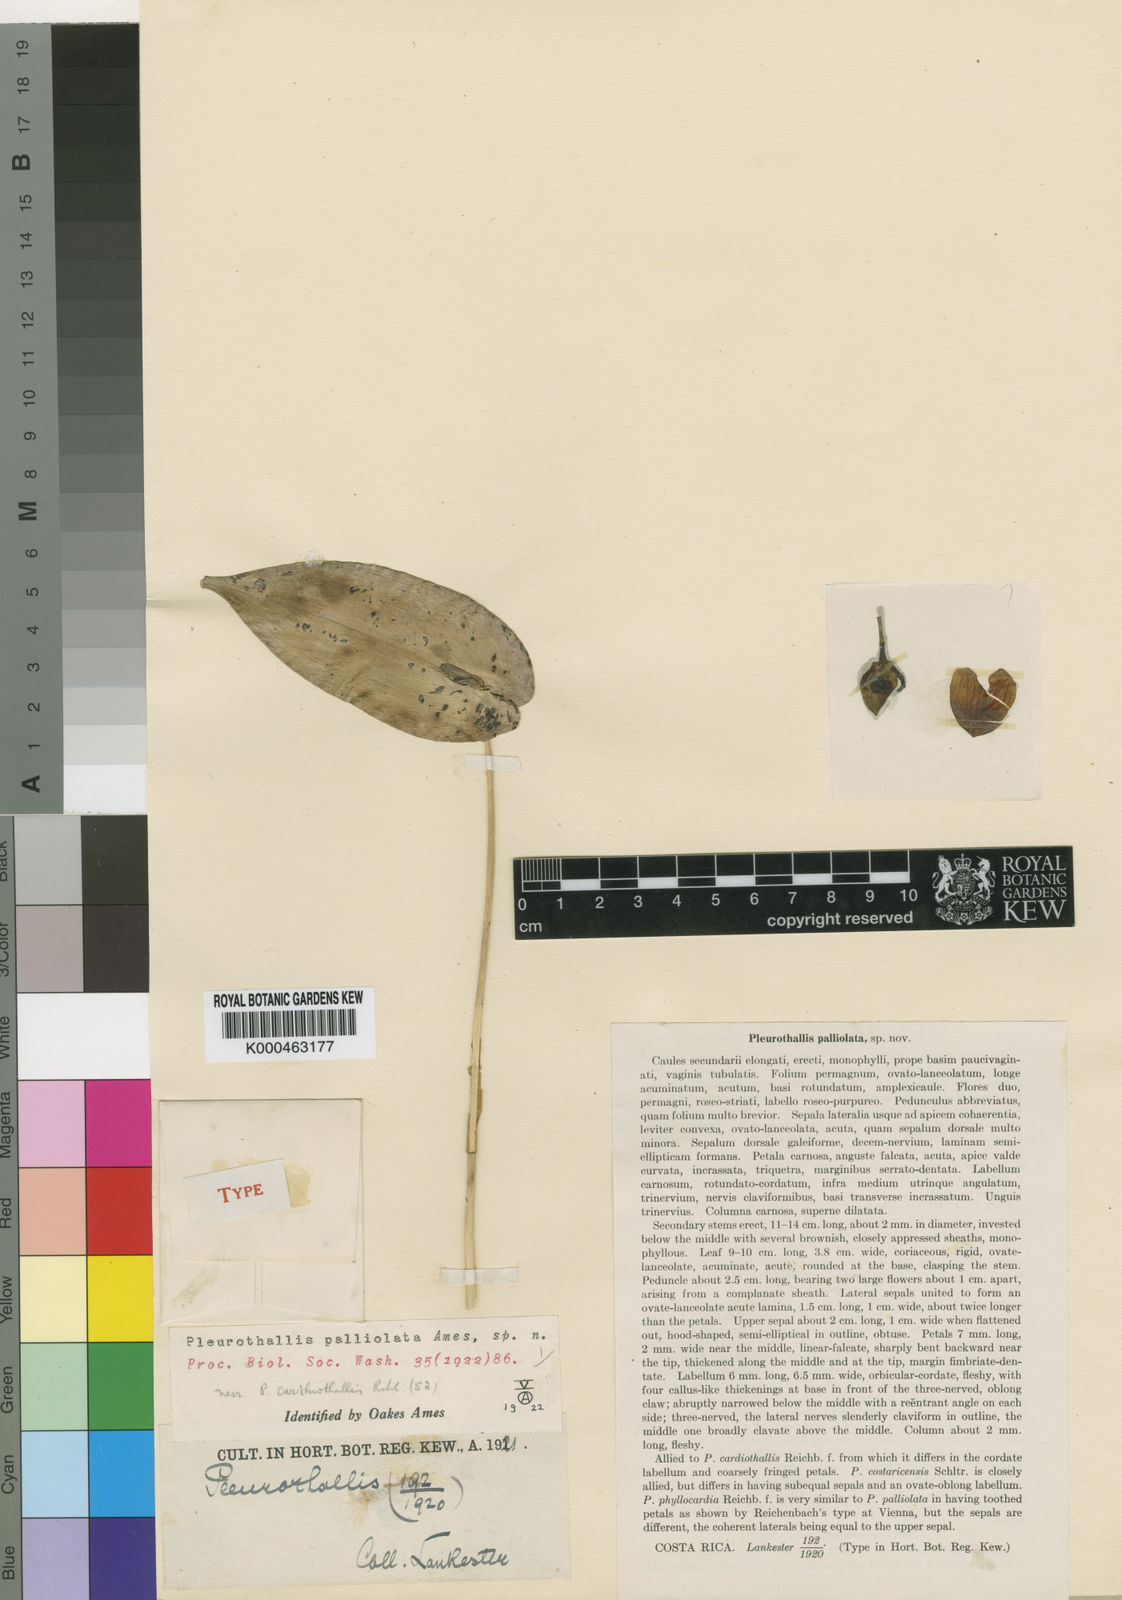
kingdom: Plantae
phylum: Tracheophyta
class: Liliopsida
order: Asparagales
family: Orchidaceae
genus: Pleurothallis
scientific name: Pleurothallis palliolata
